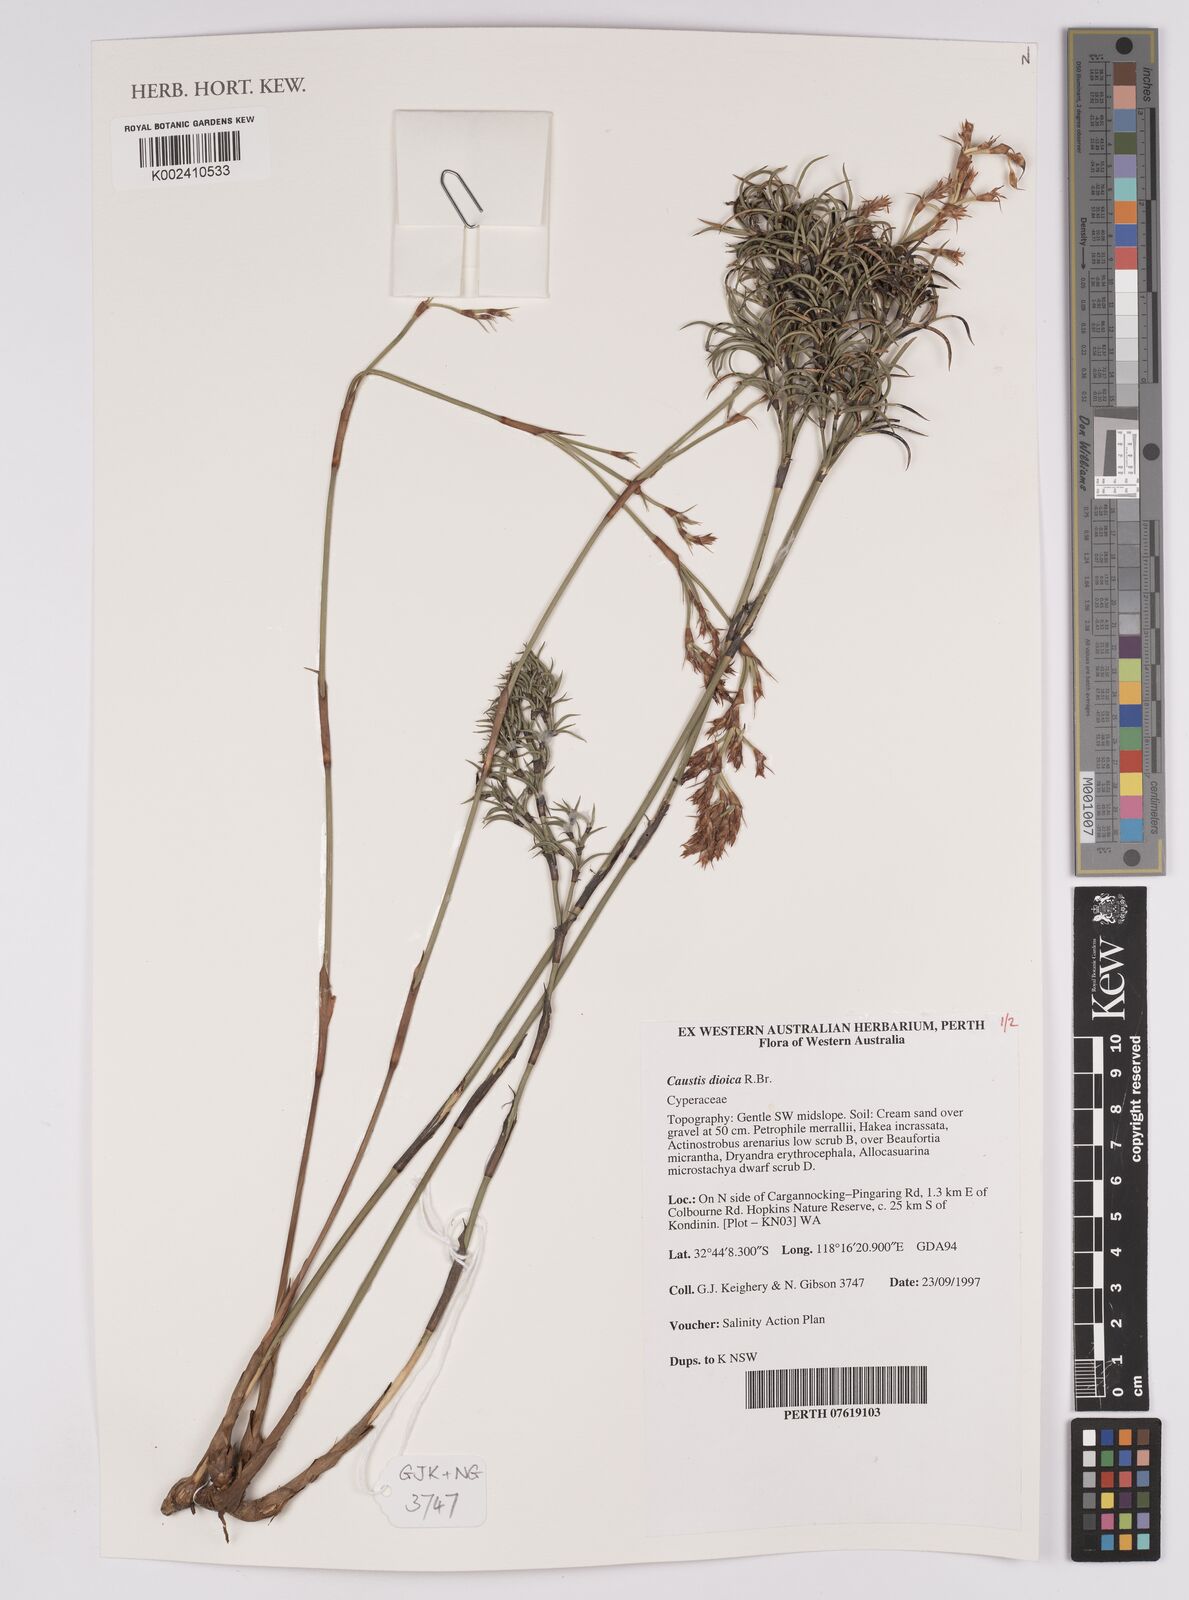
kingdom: Plantae
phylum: Tracheophyta
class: Liliopsida
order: Poales
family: Cyperaceae
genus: Caustis
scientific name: Caustis dioica
